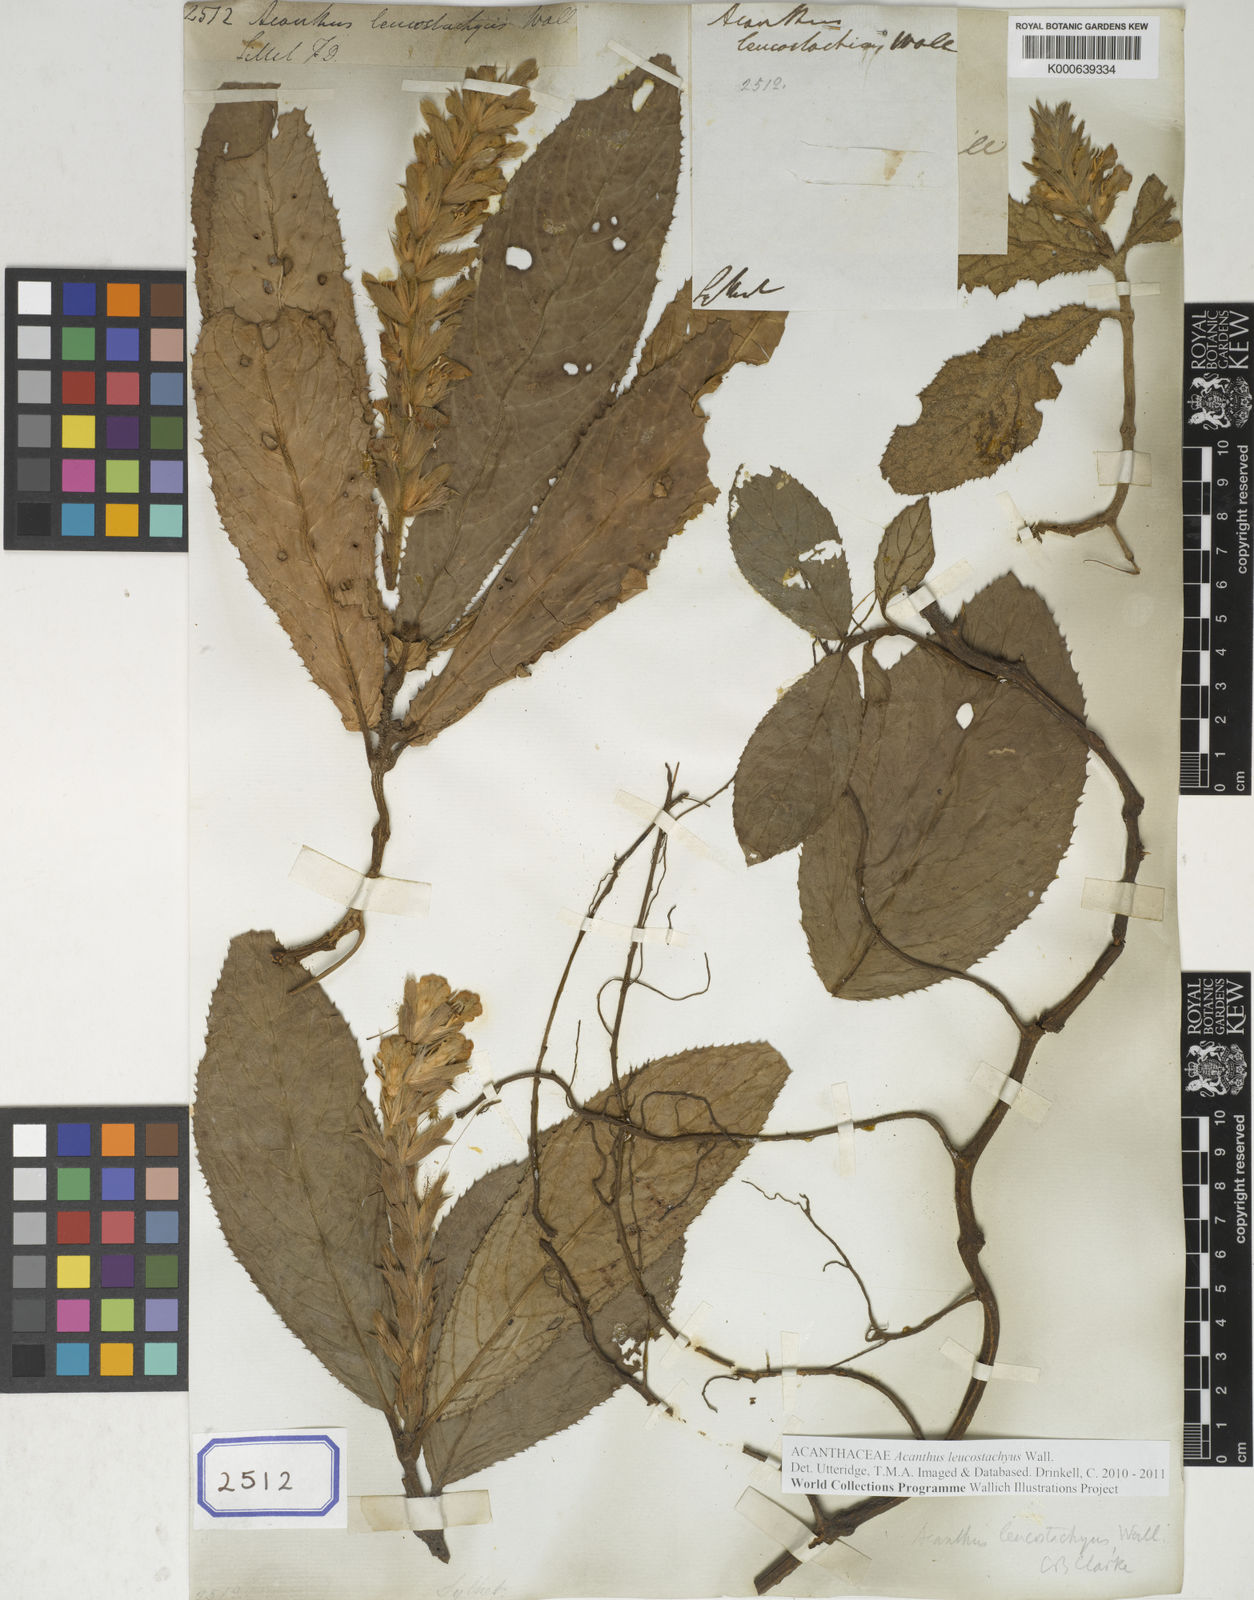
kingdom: Plantae
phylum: Tracheophyta
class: Magnoliopsida
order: Lamiales
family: Acanthaceae
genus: Acanthus
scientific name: Acanthus
